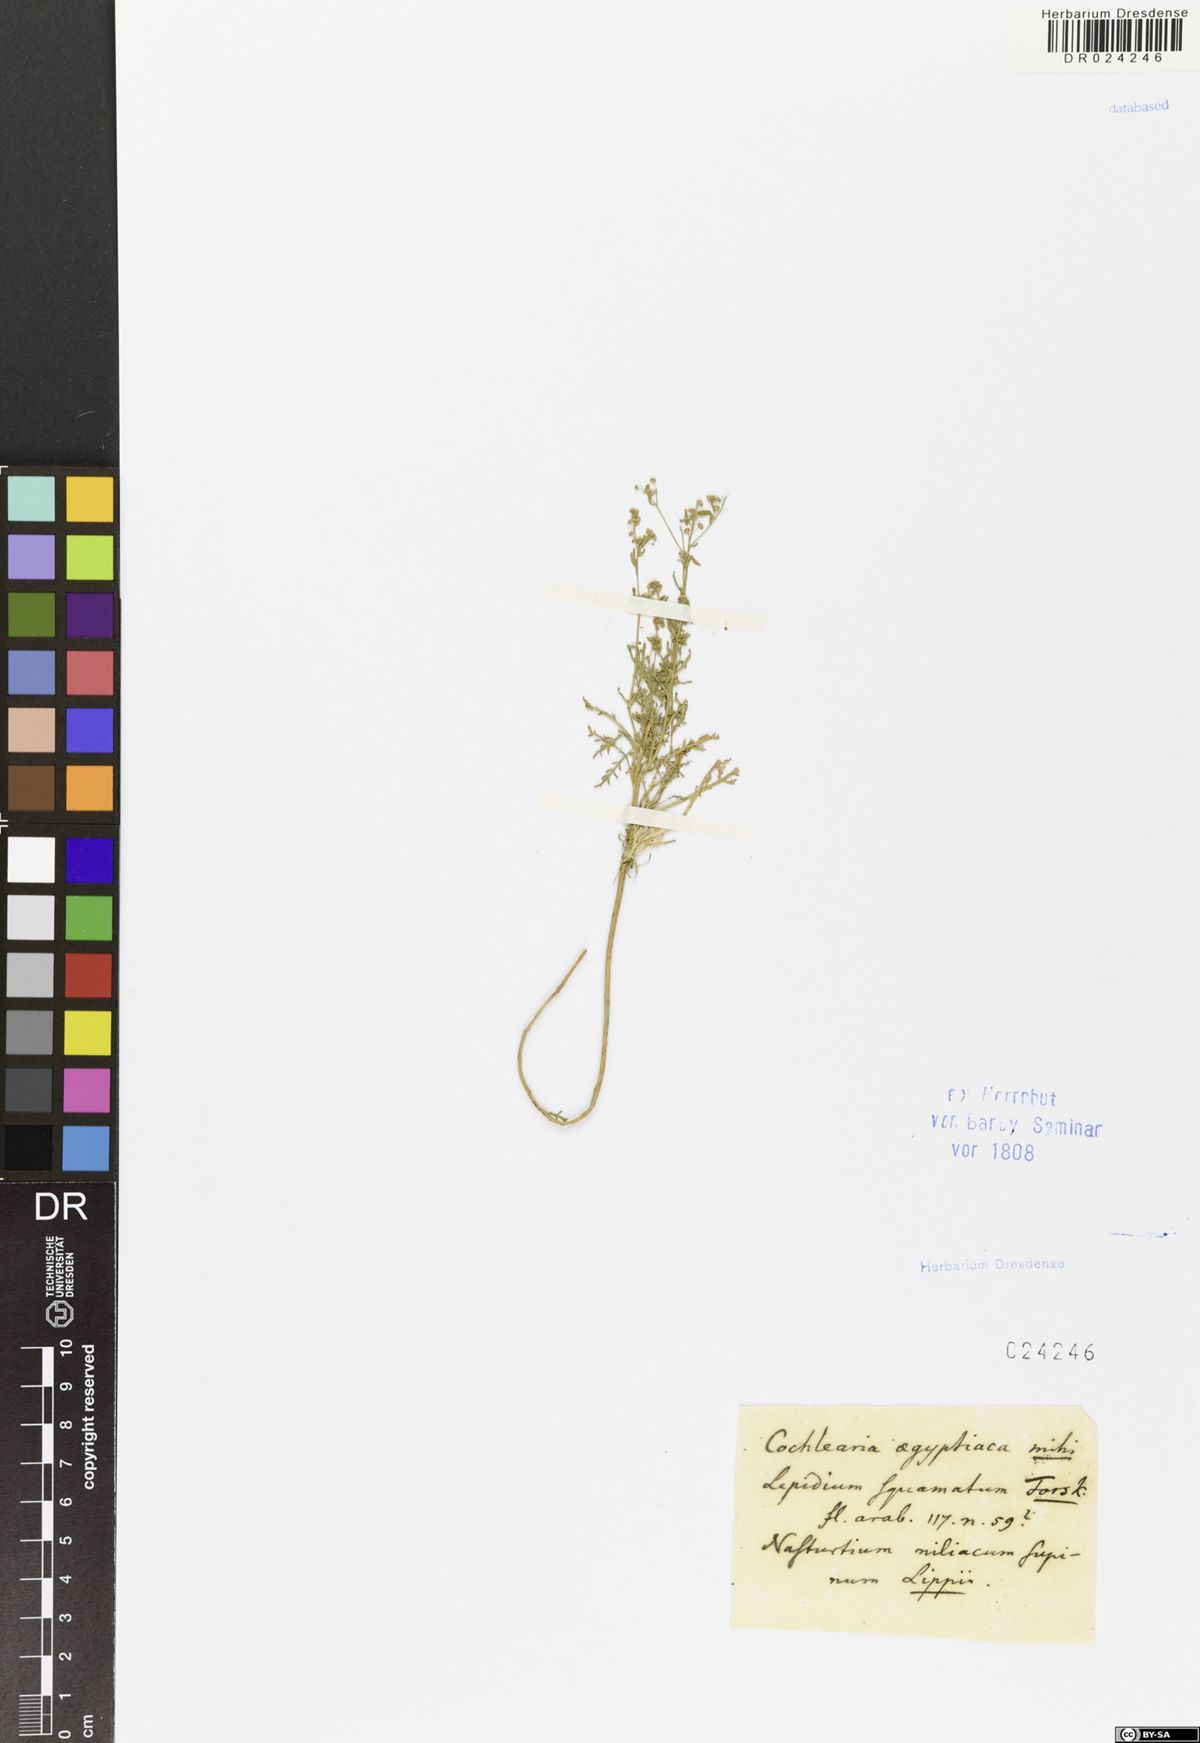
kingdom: Plantae
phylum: Tracheophyta
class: Magnoliopsida
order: Brassicales
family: Brassicaceae
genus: Lepidium
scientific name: Lepidium coronopus
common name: Greater swinecress
